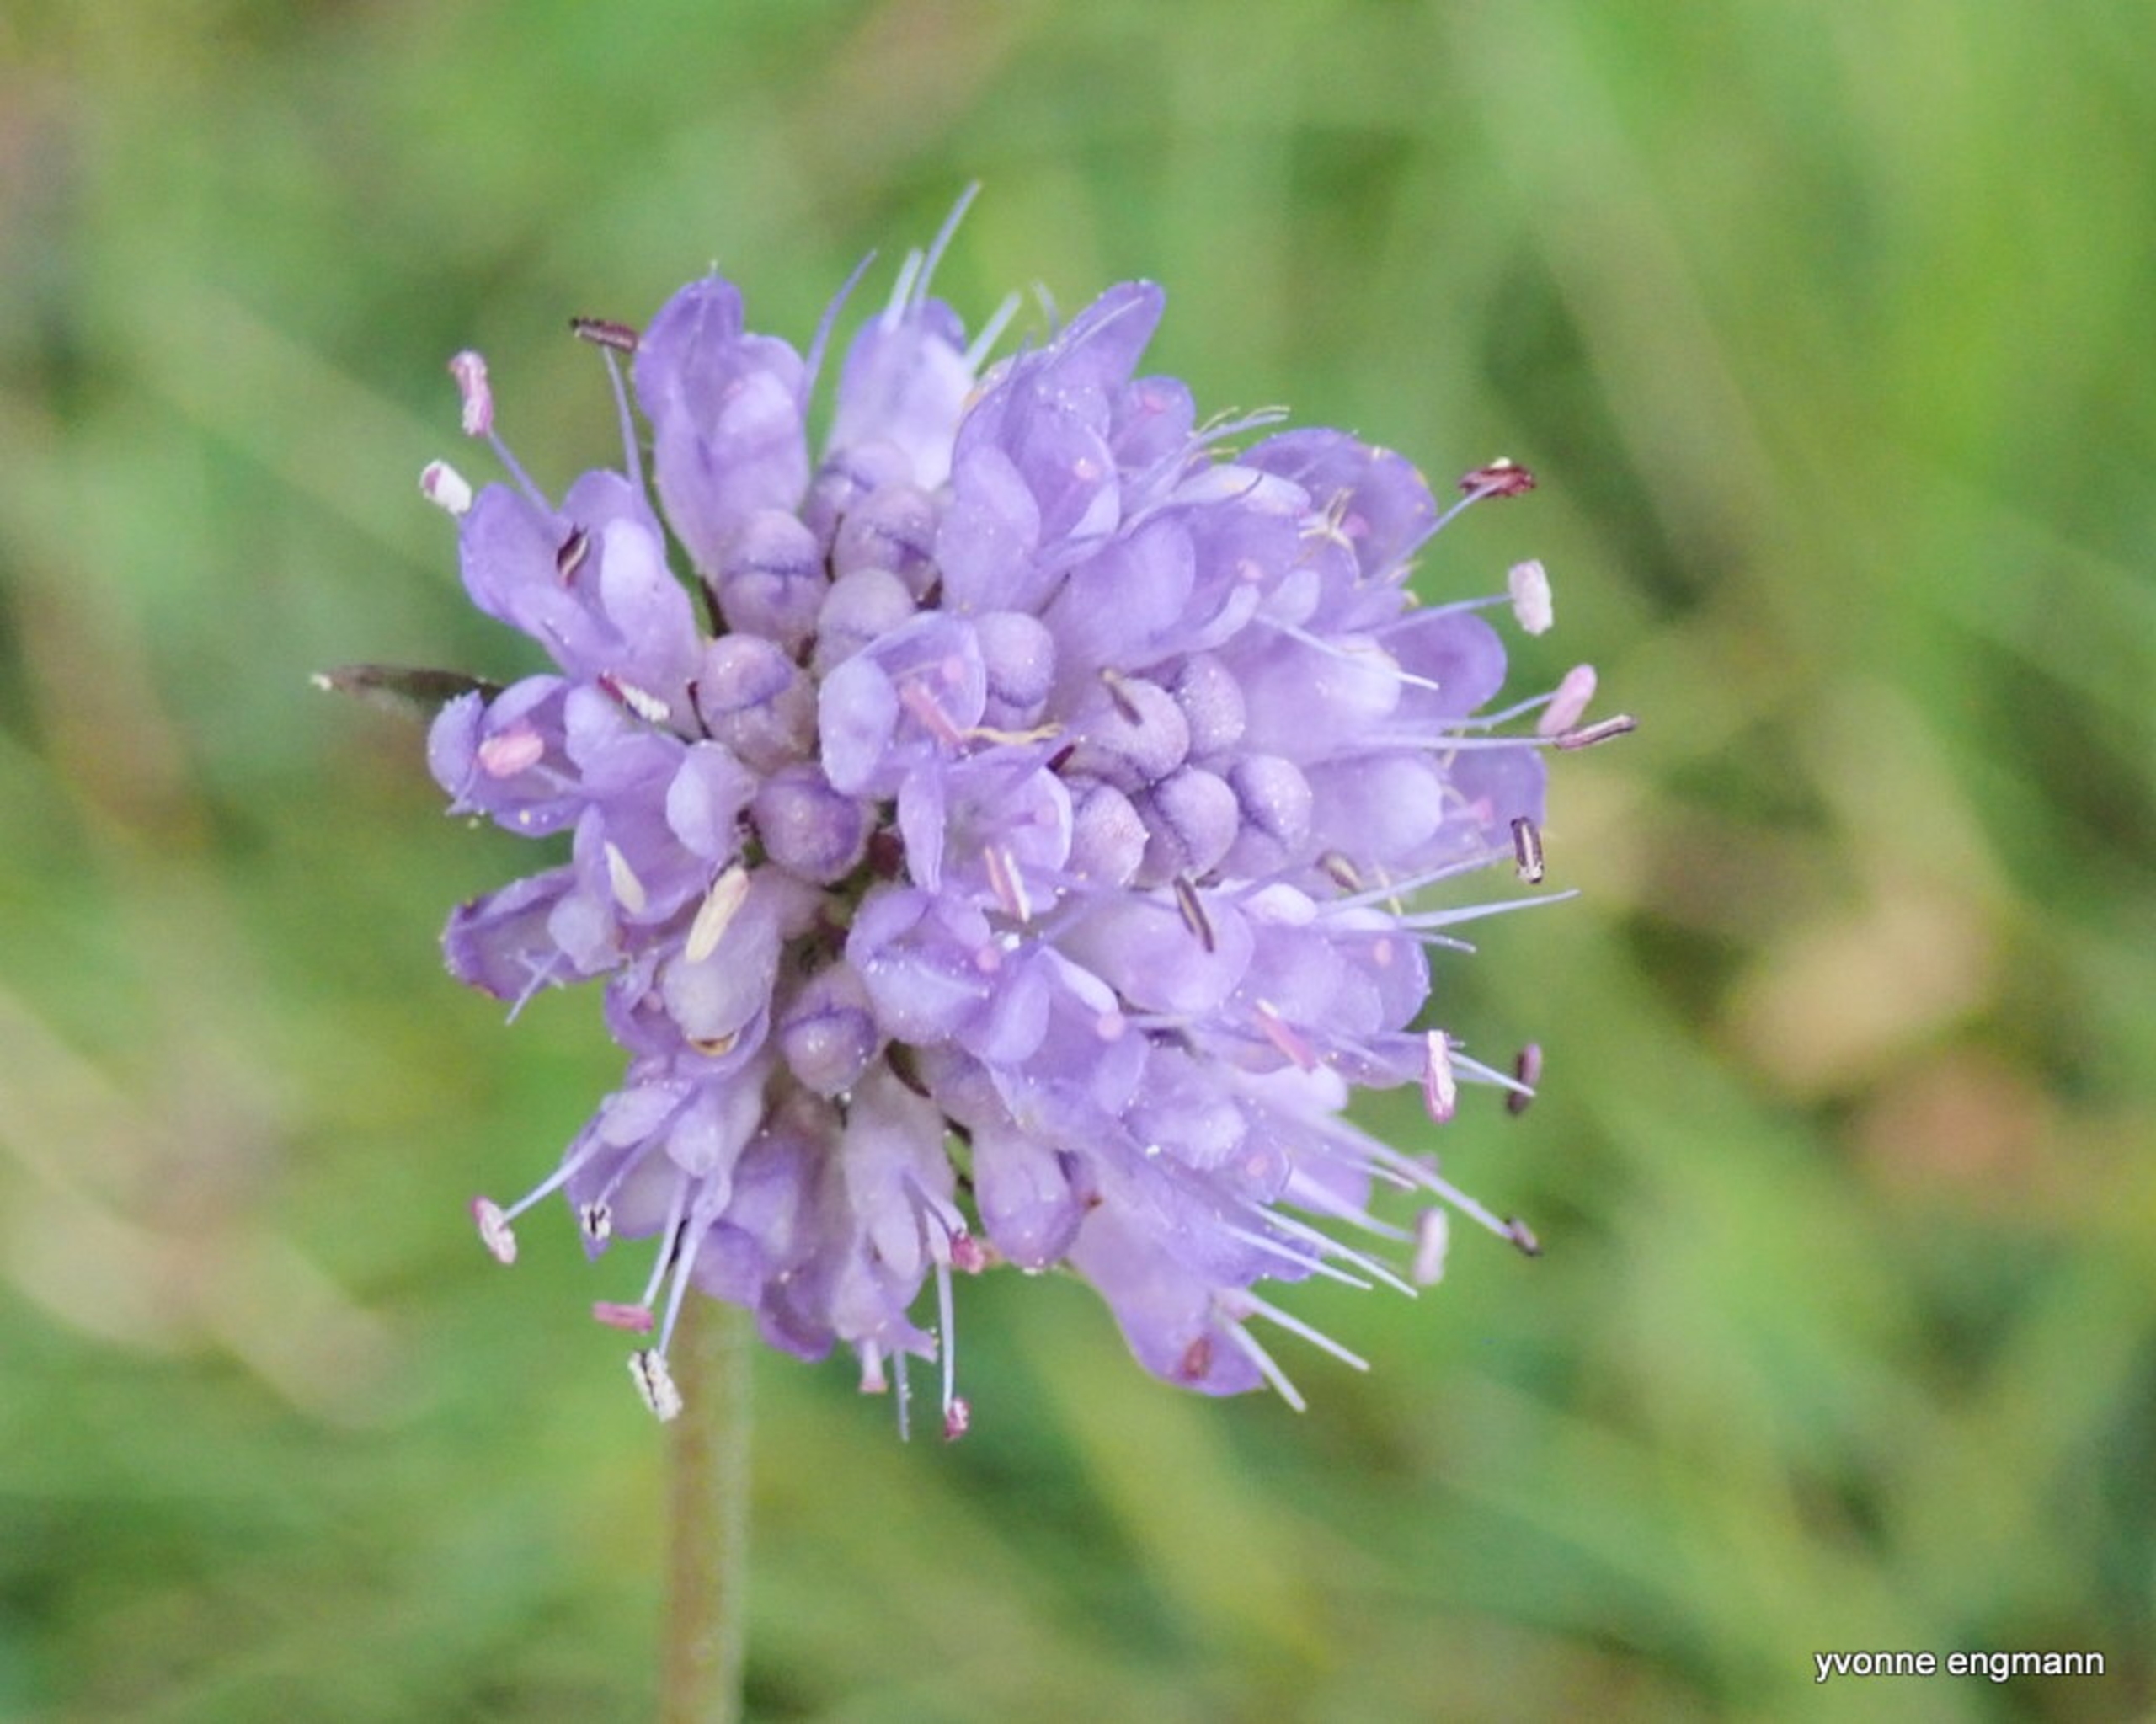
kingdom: Plantae
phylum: Tracheophyta
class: Magnoliopsida
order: Dipsacales
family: Caprifoliaceae
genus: Knautia
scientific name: Knautia arvensis
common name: Blåhat
